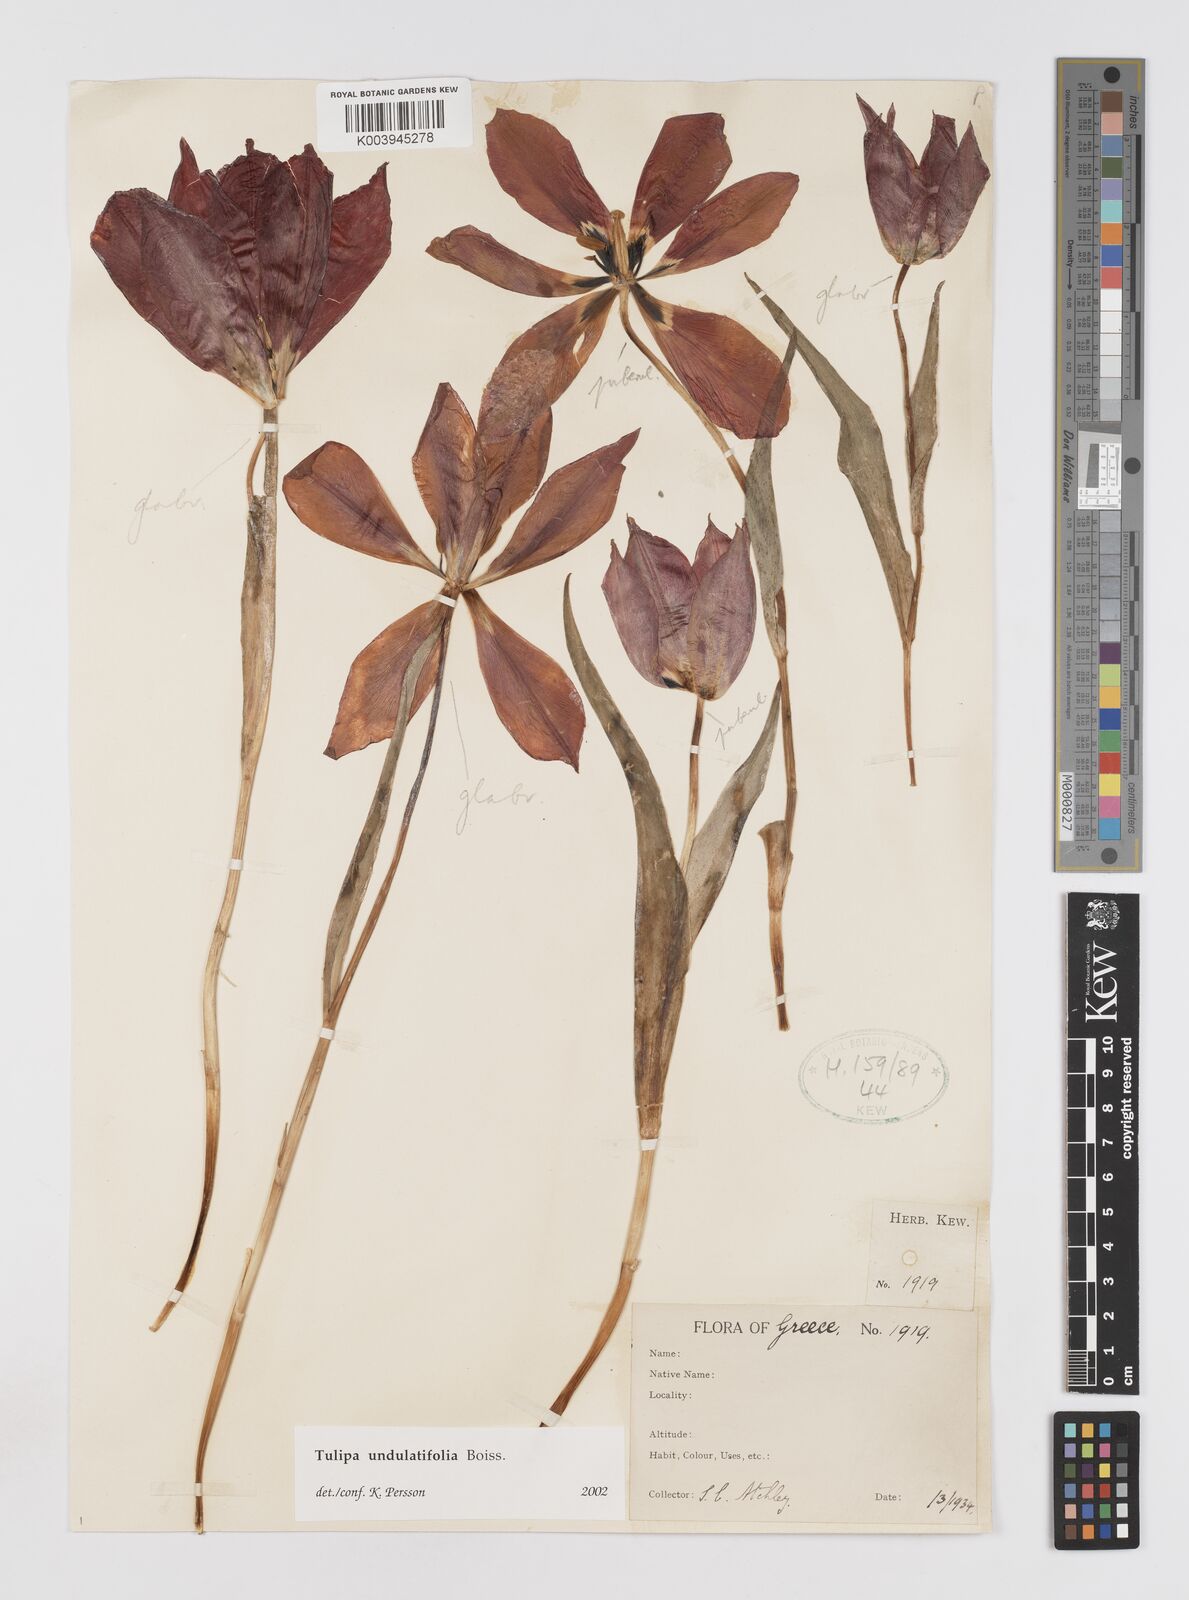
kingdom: Plantae
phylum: Tracheophyta
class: Liliopsida
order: Liliales
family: Liliaceae
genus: Tulipa
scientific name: Tulipa undulatifolia
